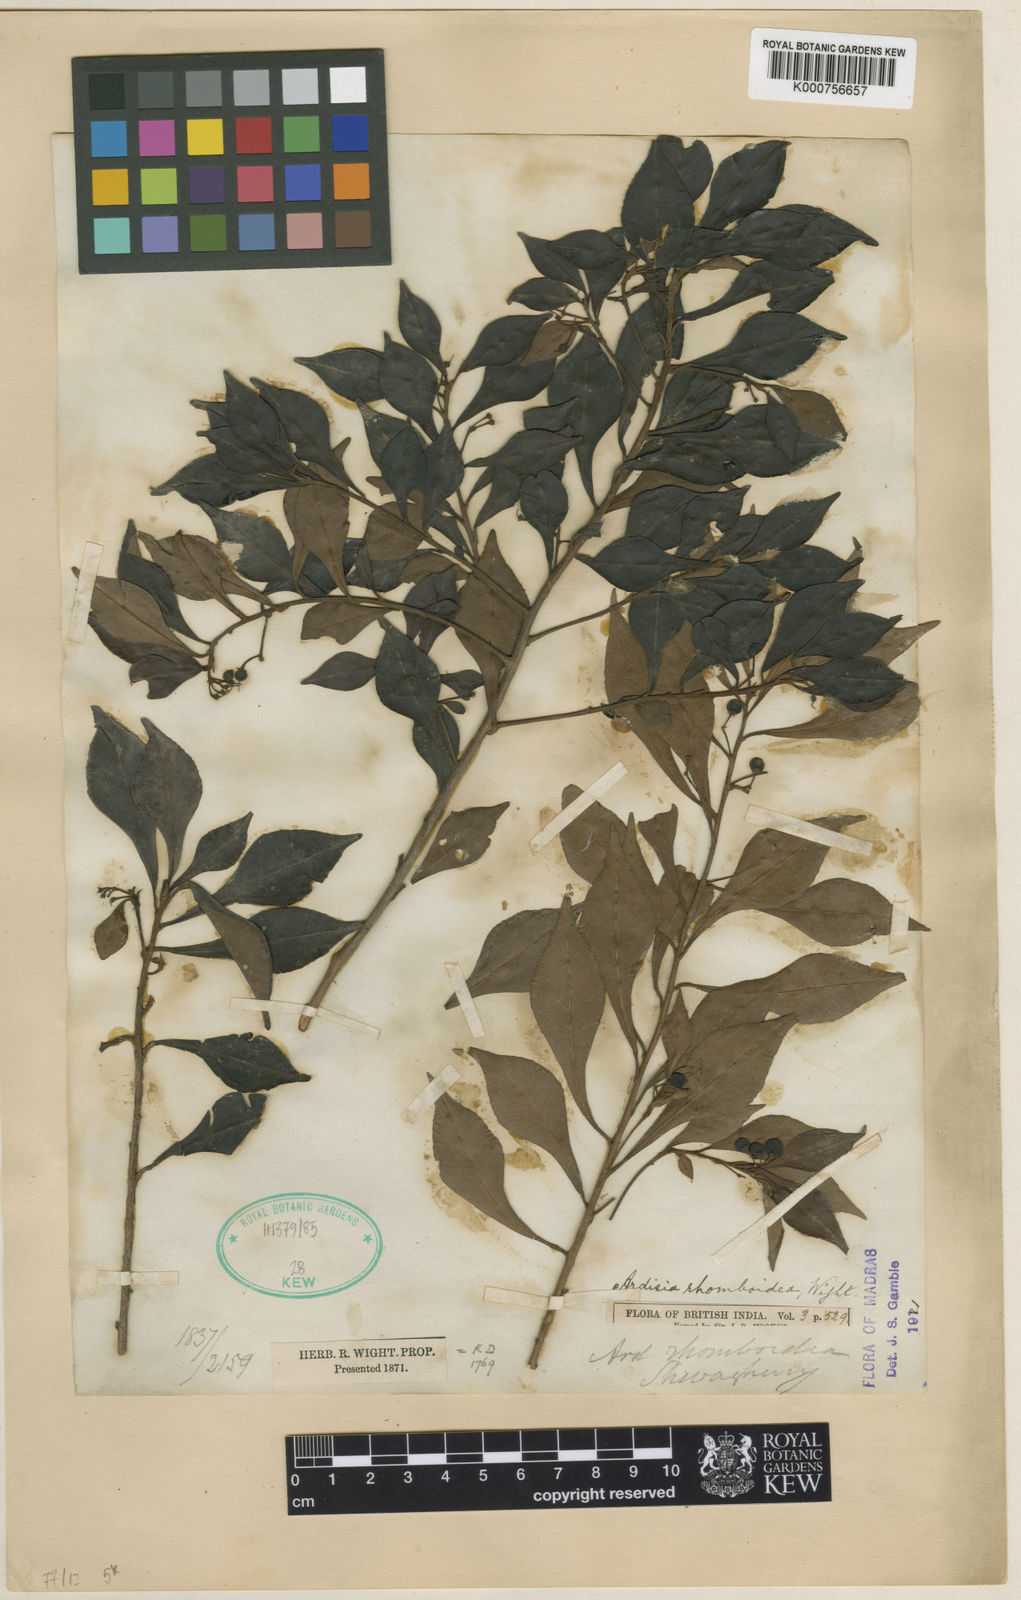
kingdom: Plantae
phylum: Tracheophyta
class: Magnoliopsida
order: Ericales
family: Primulaceae
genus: Ardisia
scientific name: Ardisia pauciflora
